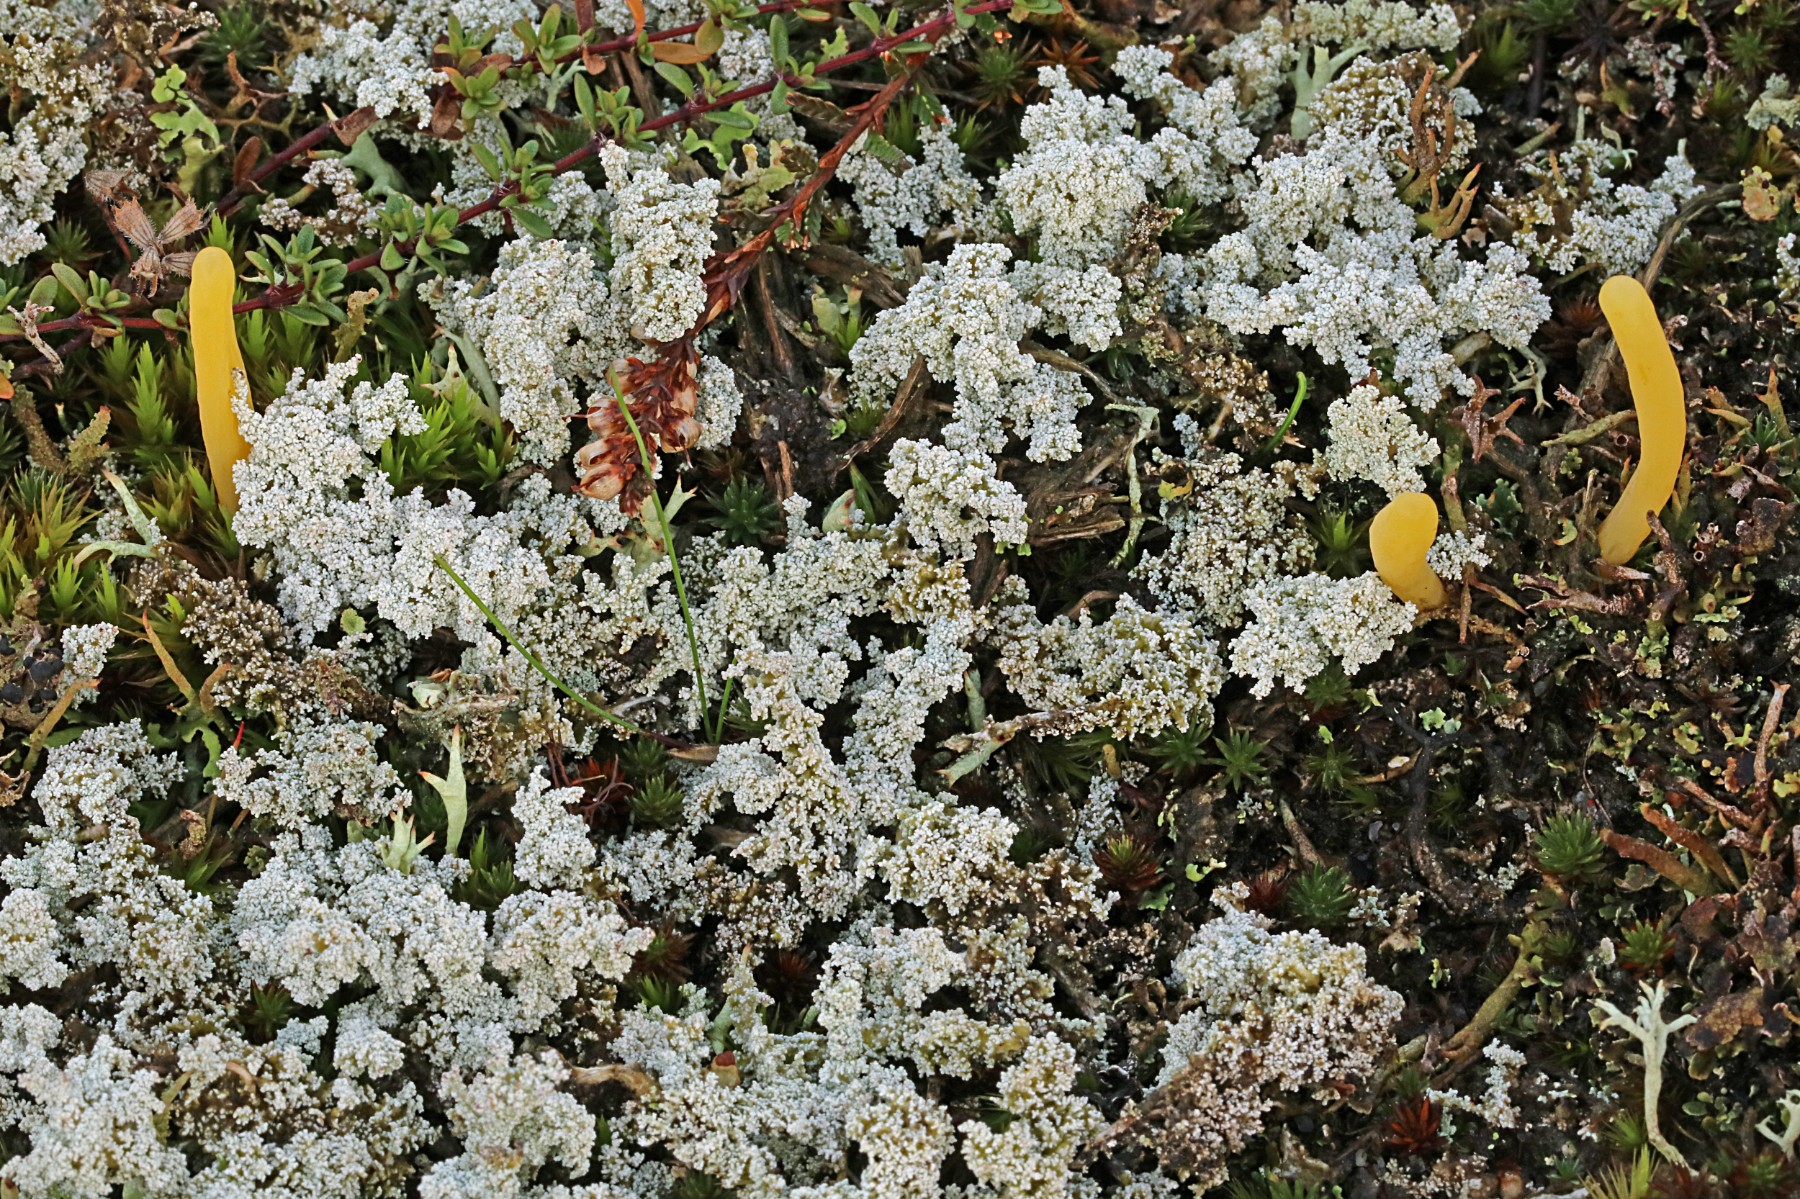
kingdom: Fungi
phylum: Ascomycota
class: Lecanoromycetes
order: Lecanorales
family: Stereocaulaceae
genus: Stereocaulon
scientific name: Stereocaulon saxatile
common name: klit-korallav
